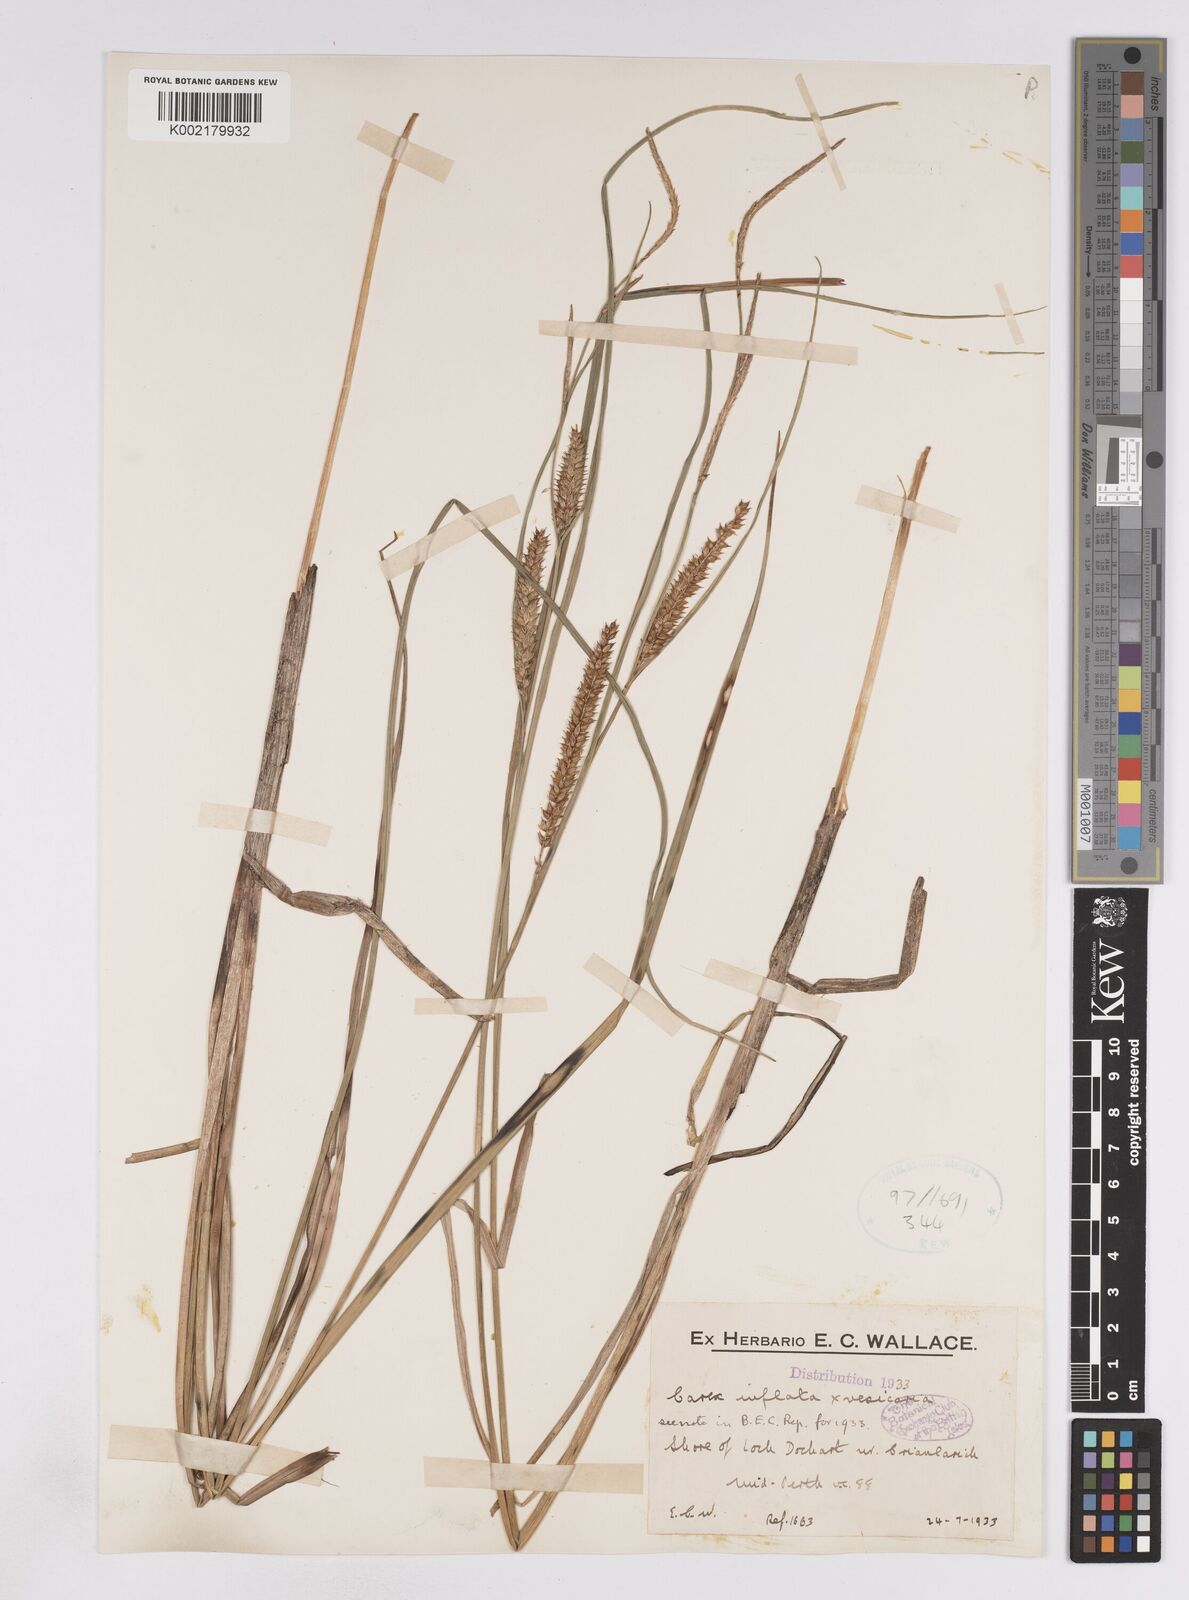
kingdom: Plantae
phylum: Tracheophyta
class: Liliopsida
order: Poales
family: Cyperaceae
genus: Carex
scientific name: Carex rostrata
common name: Bottle sedge
